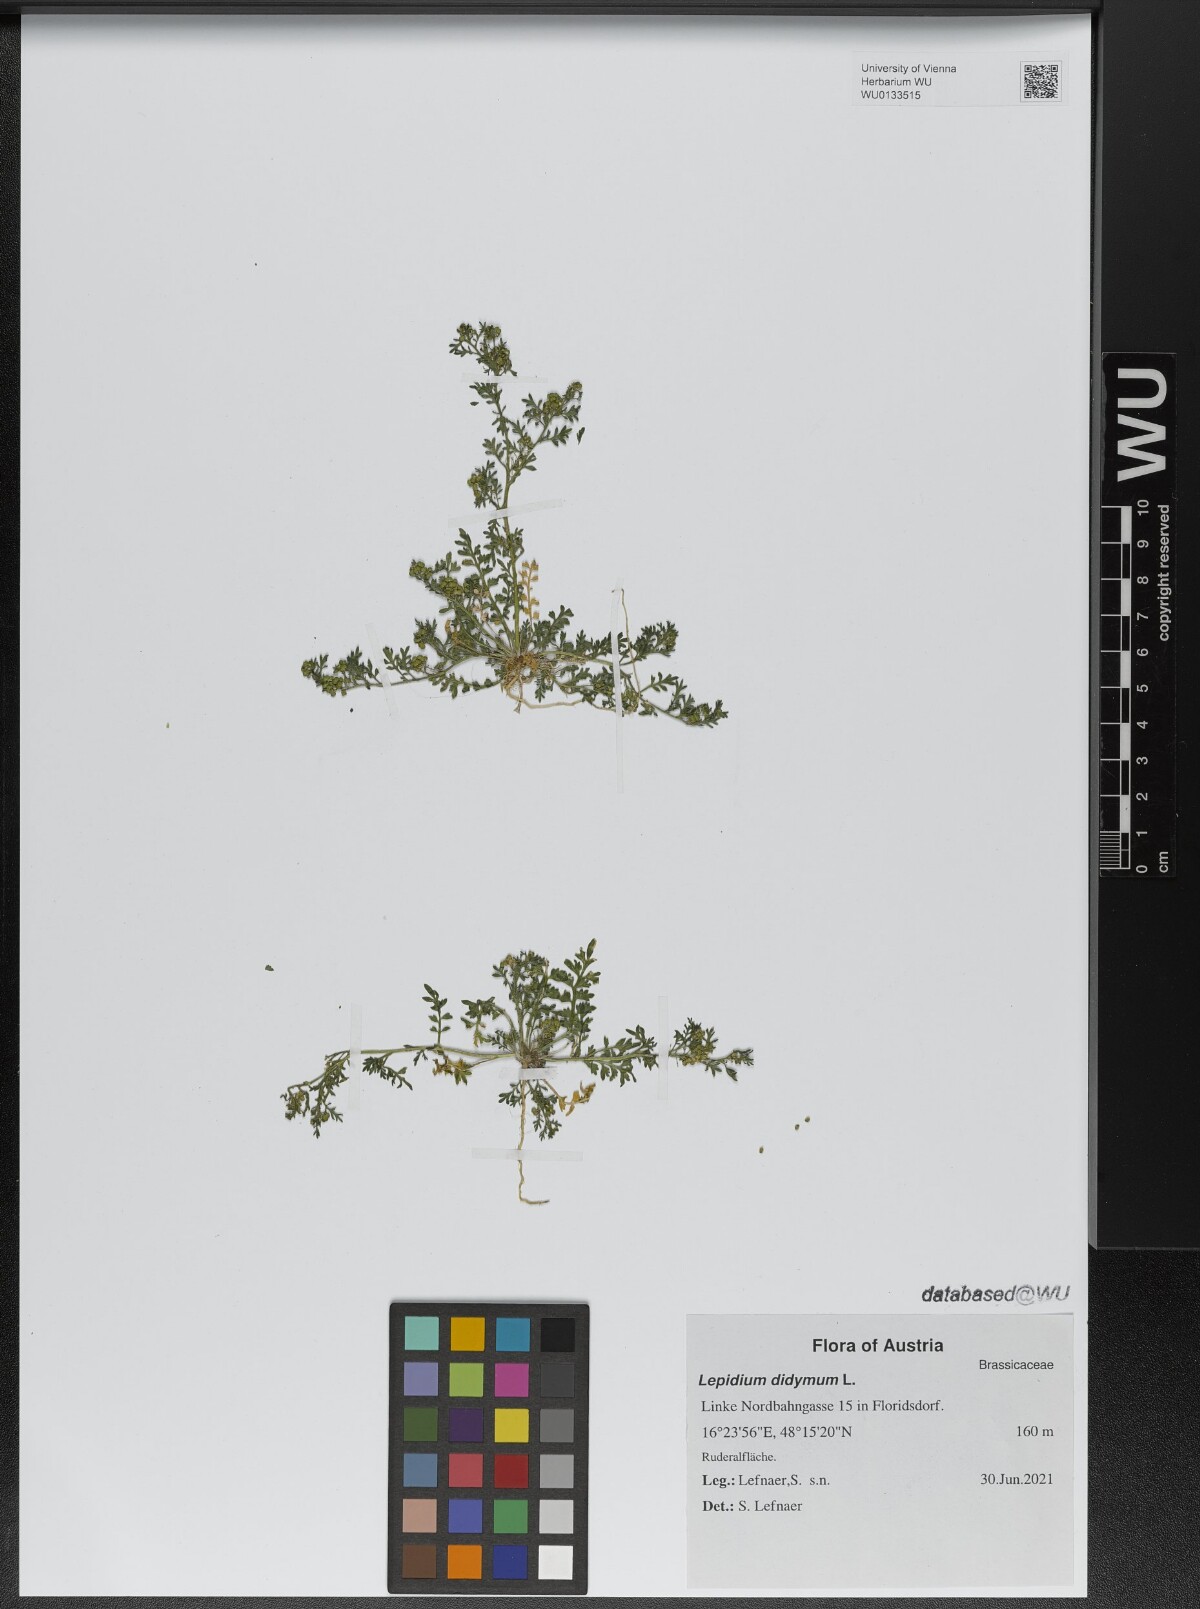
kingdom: Plantae
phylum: Tracheophyta
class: Magnoliopsida
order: Brassicales
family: Brassicaceae
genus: Lepidium
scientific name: Lepidium didymum
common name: Lesser swinecress
